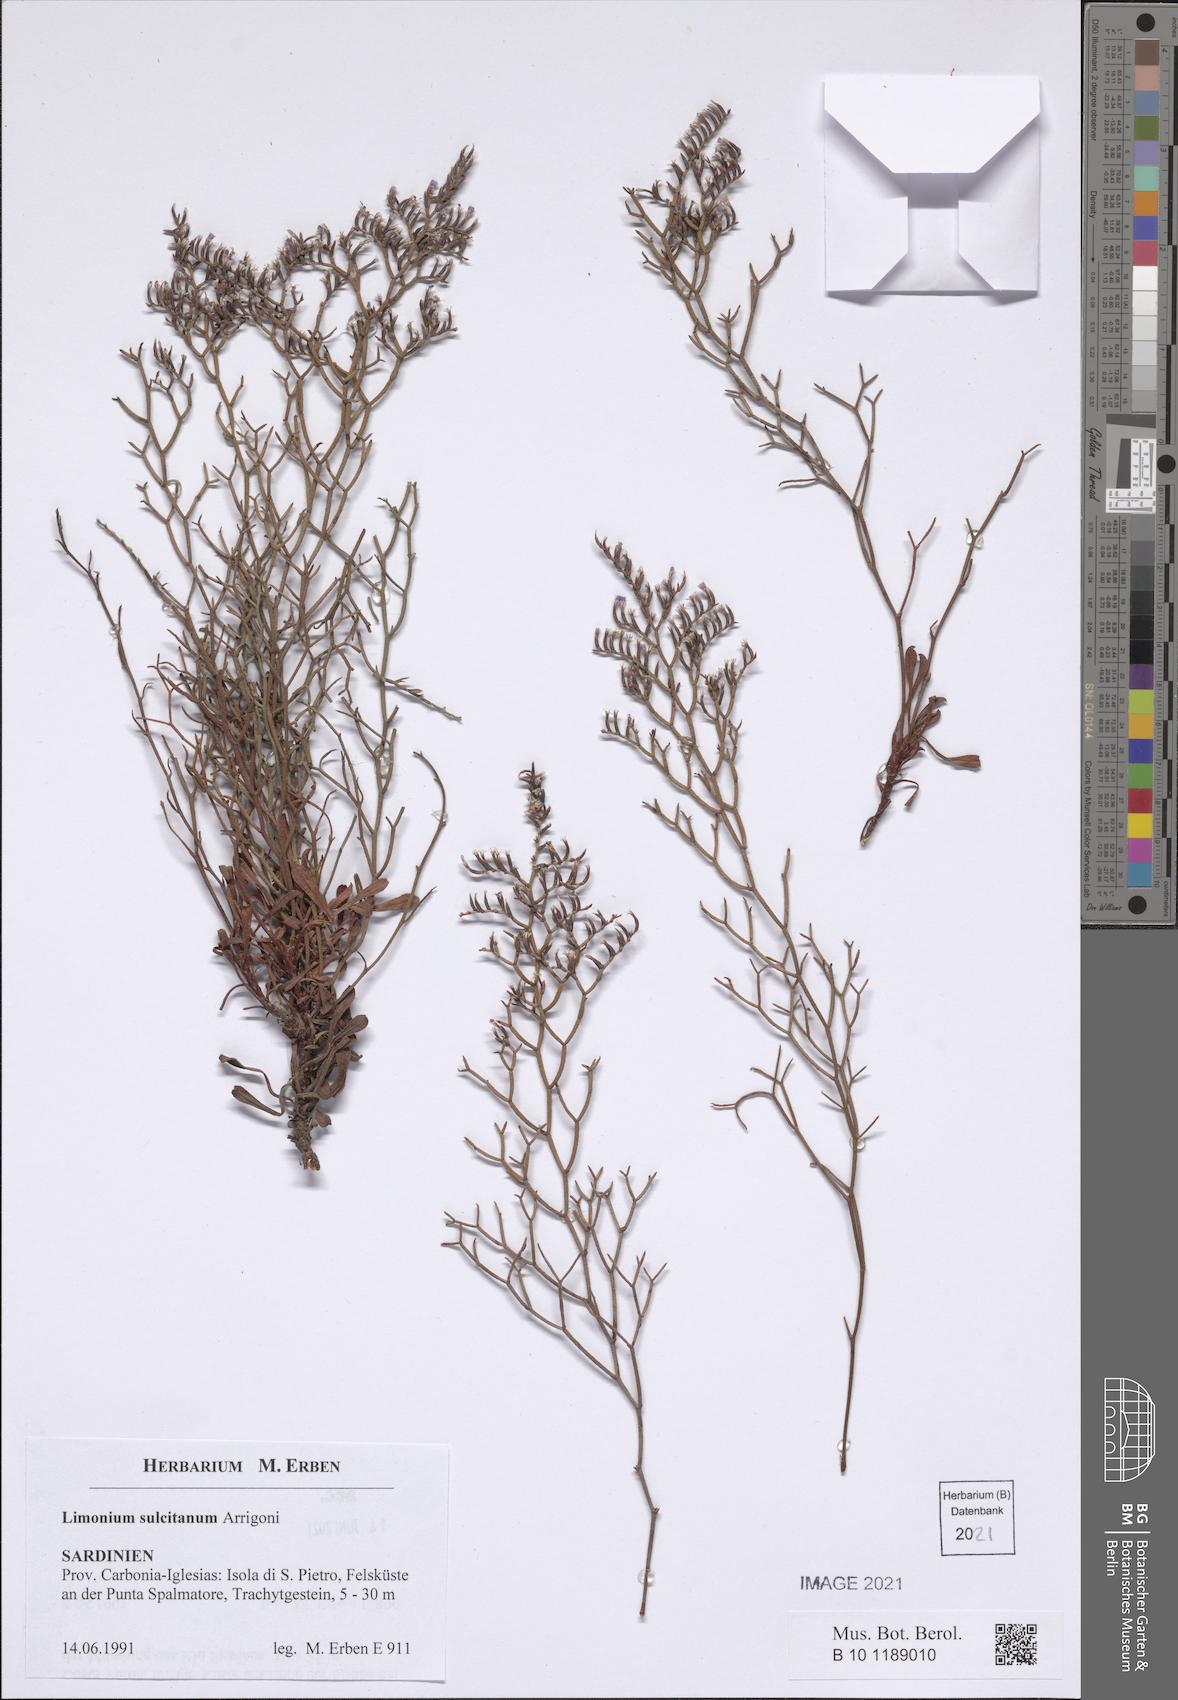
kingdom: Plantae
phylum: Tracheophyta
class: Magnoliopsida
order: Caryophyllales
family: Plumbaginaceae
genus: Limonium
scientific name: Limonium sulcitanum
